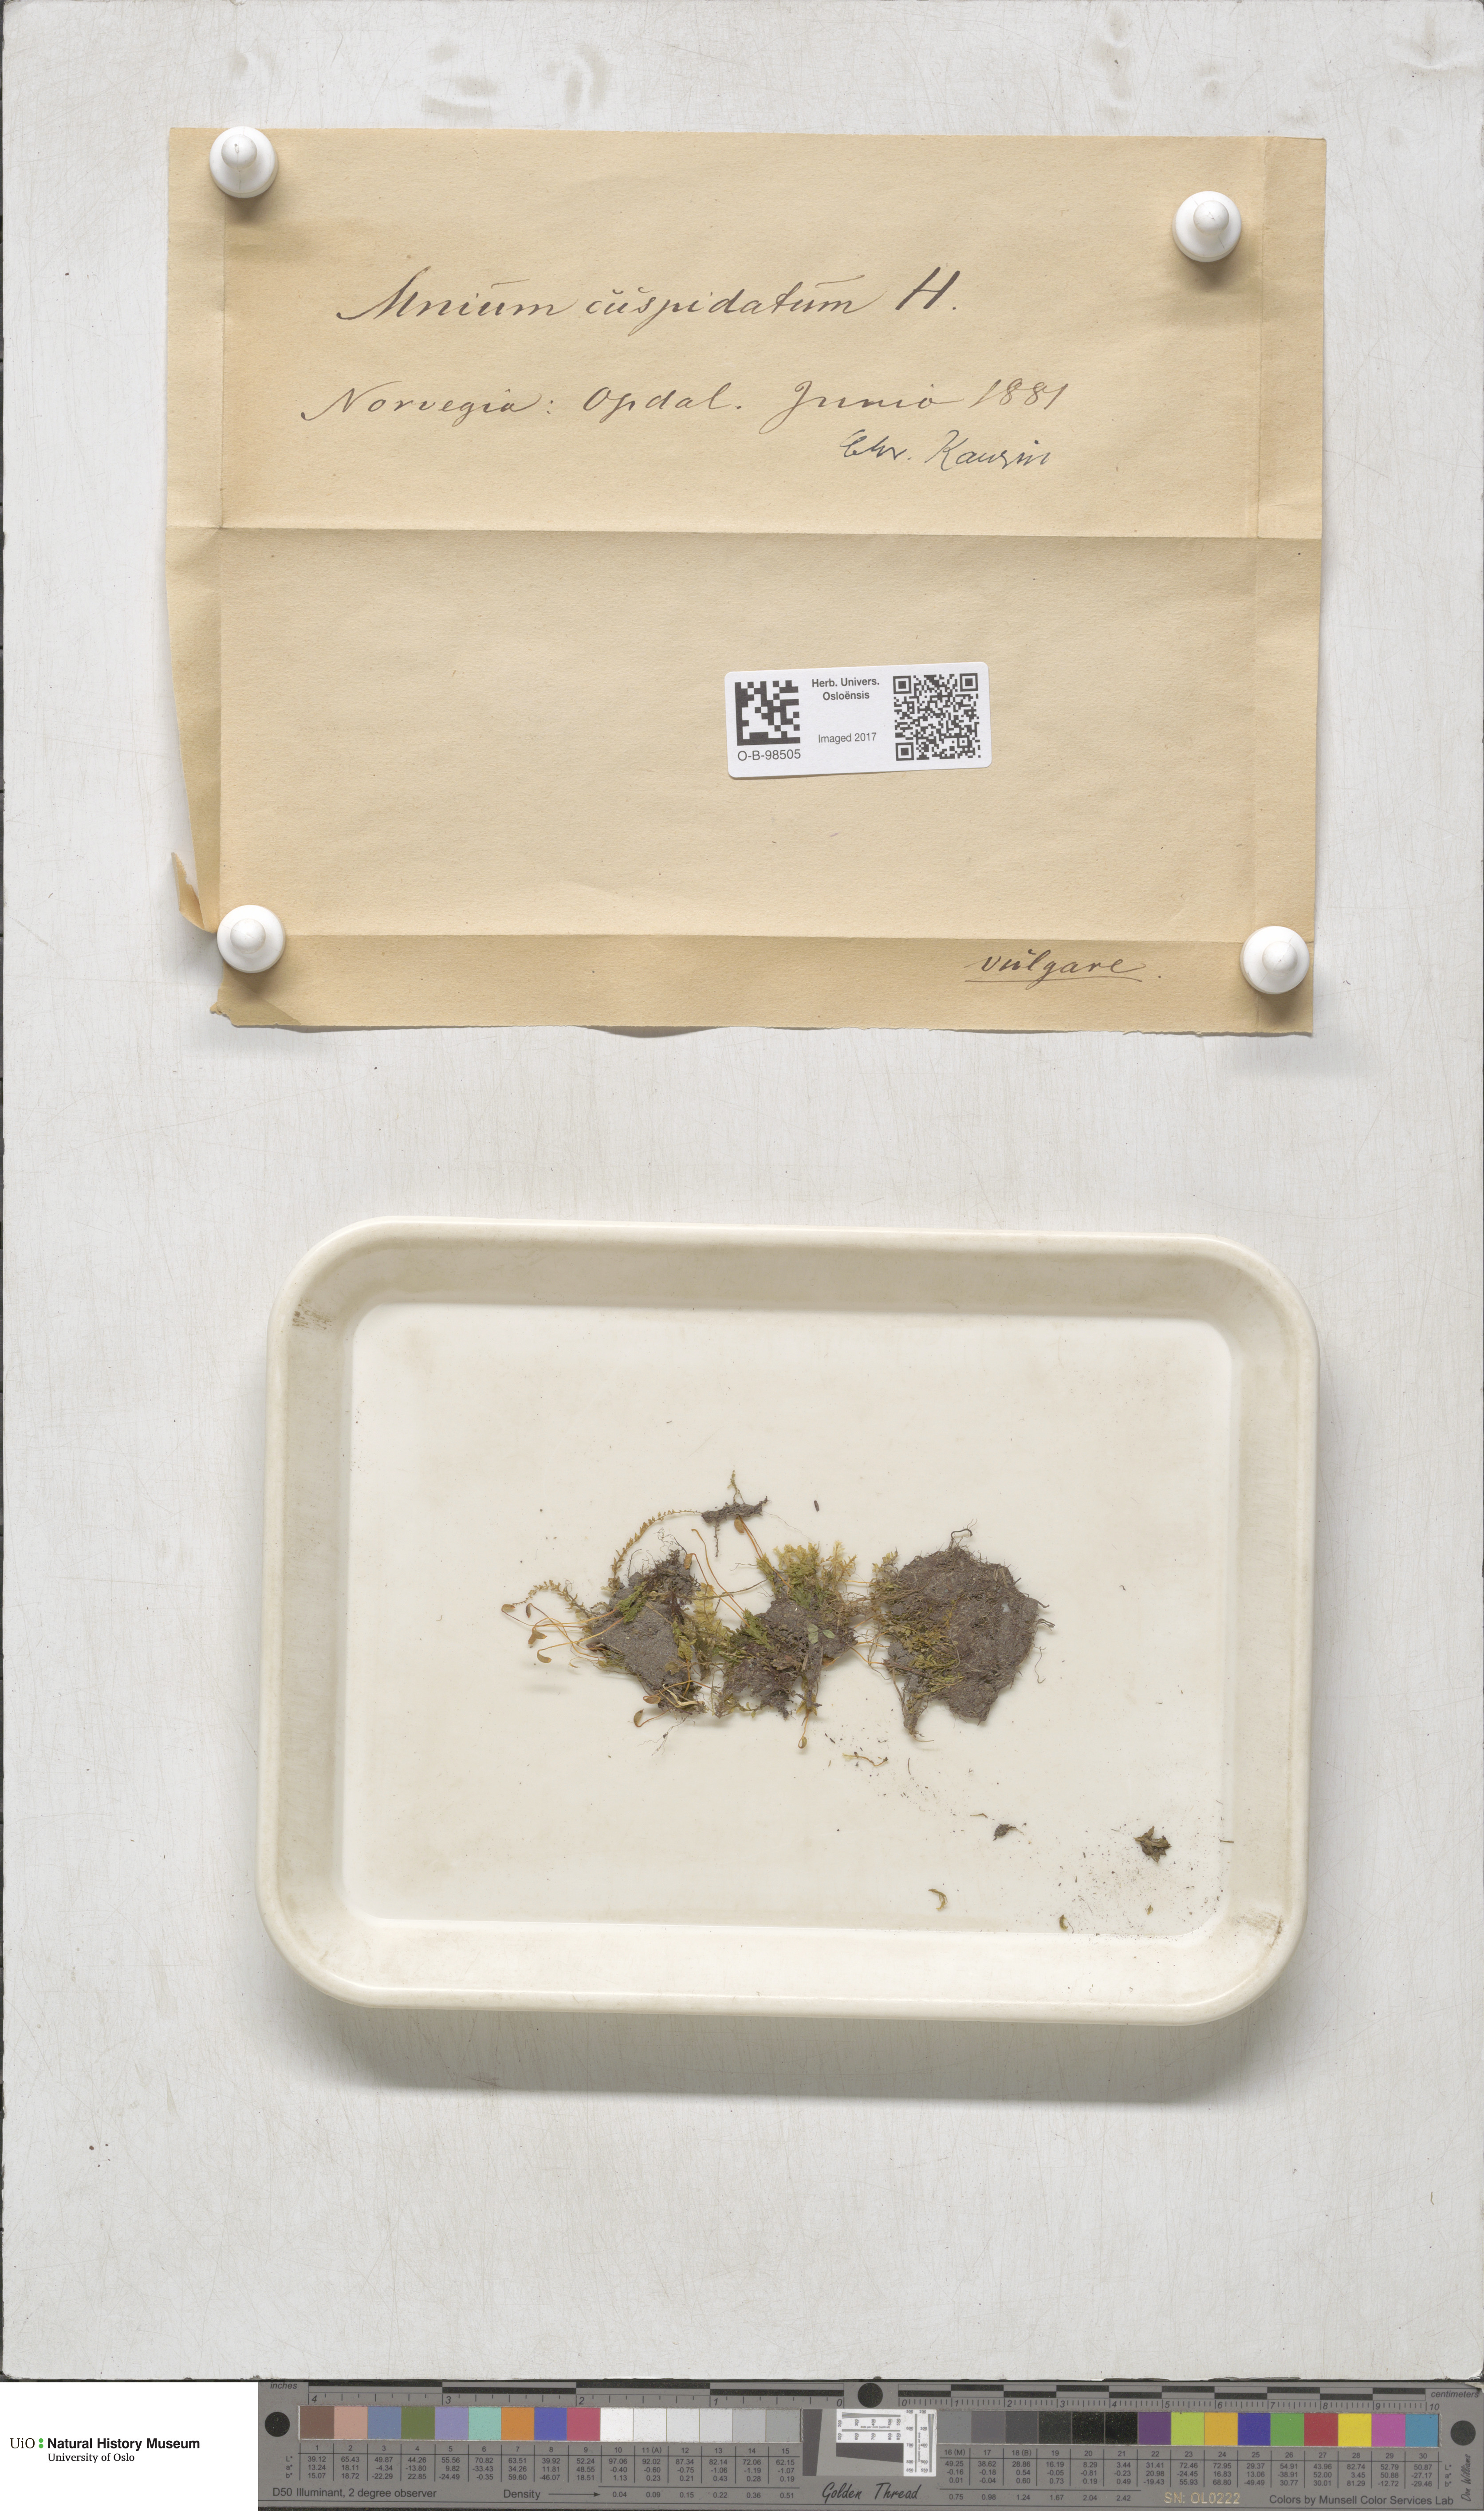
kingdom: Plantae
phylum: Bryophyta
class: Bryopsida
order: Bryales
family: Mniaceae
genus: Plagiomnium
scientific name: Plagiomnium cuspidatum
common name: Woodsy leafy moss
